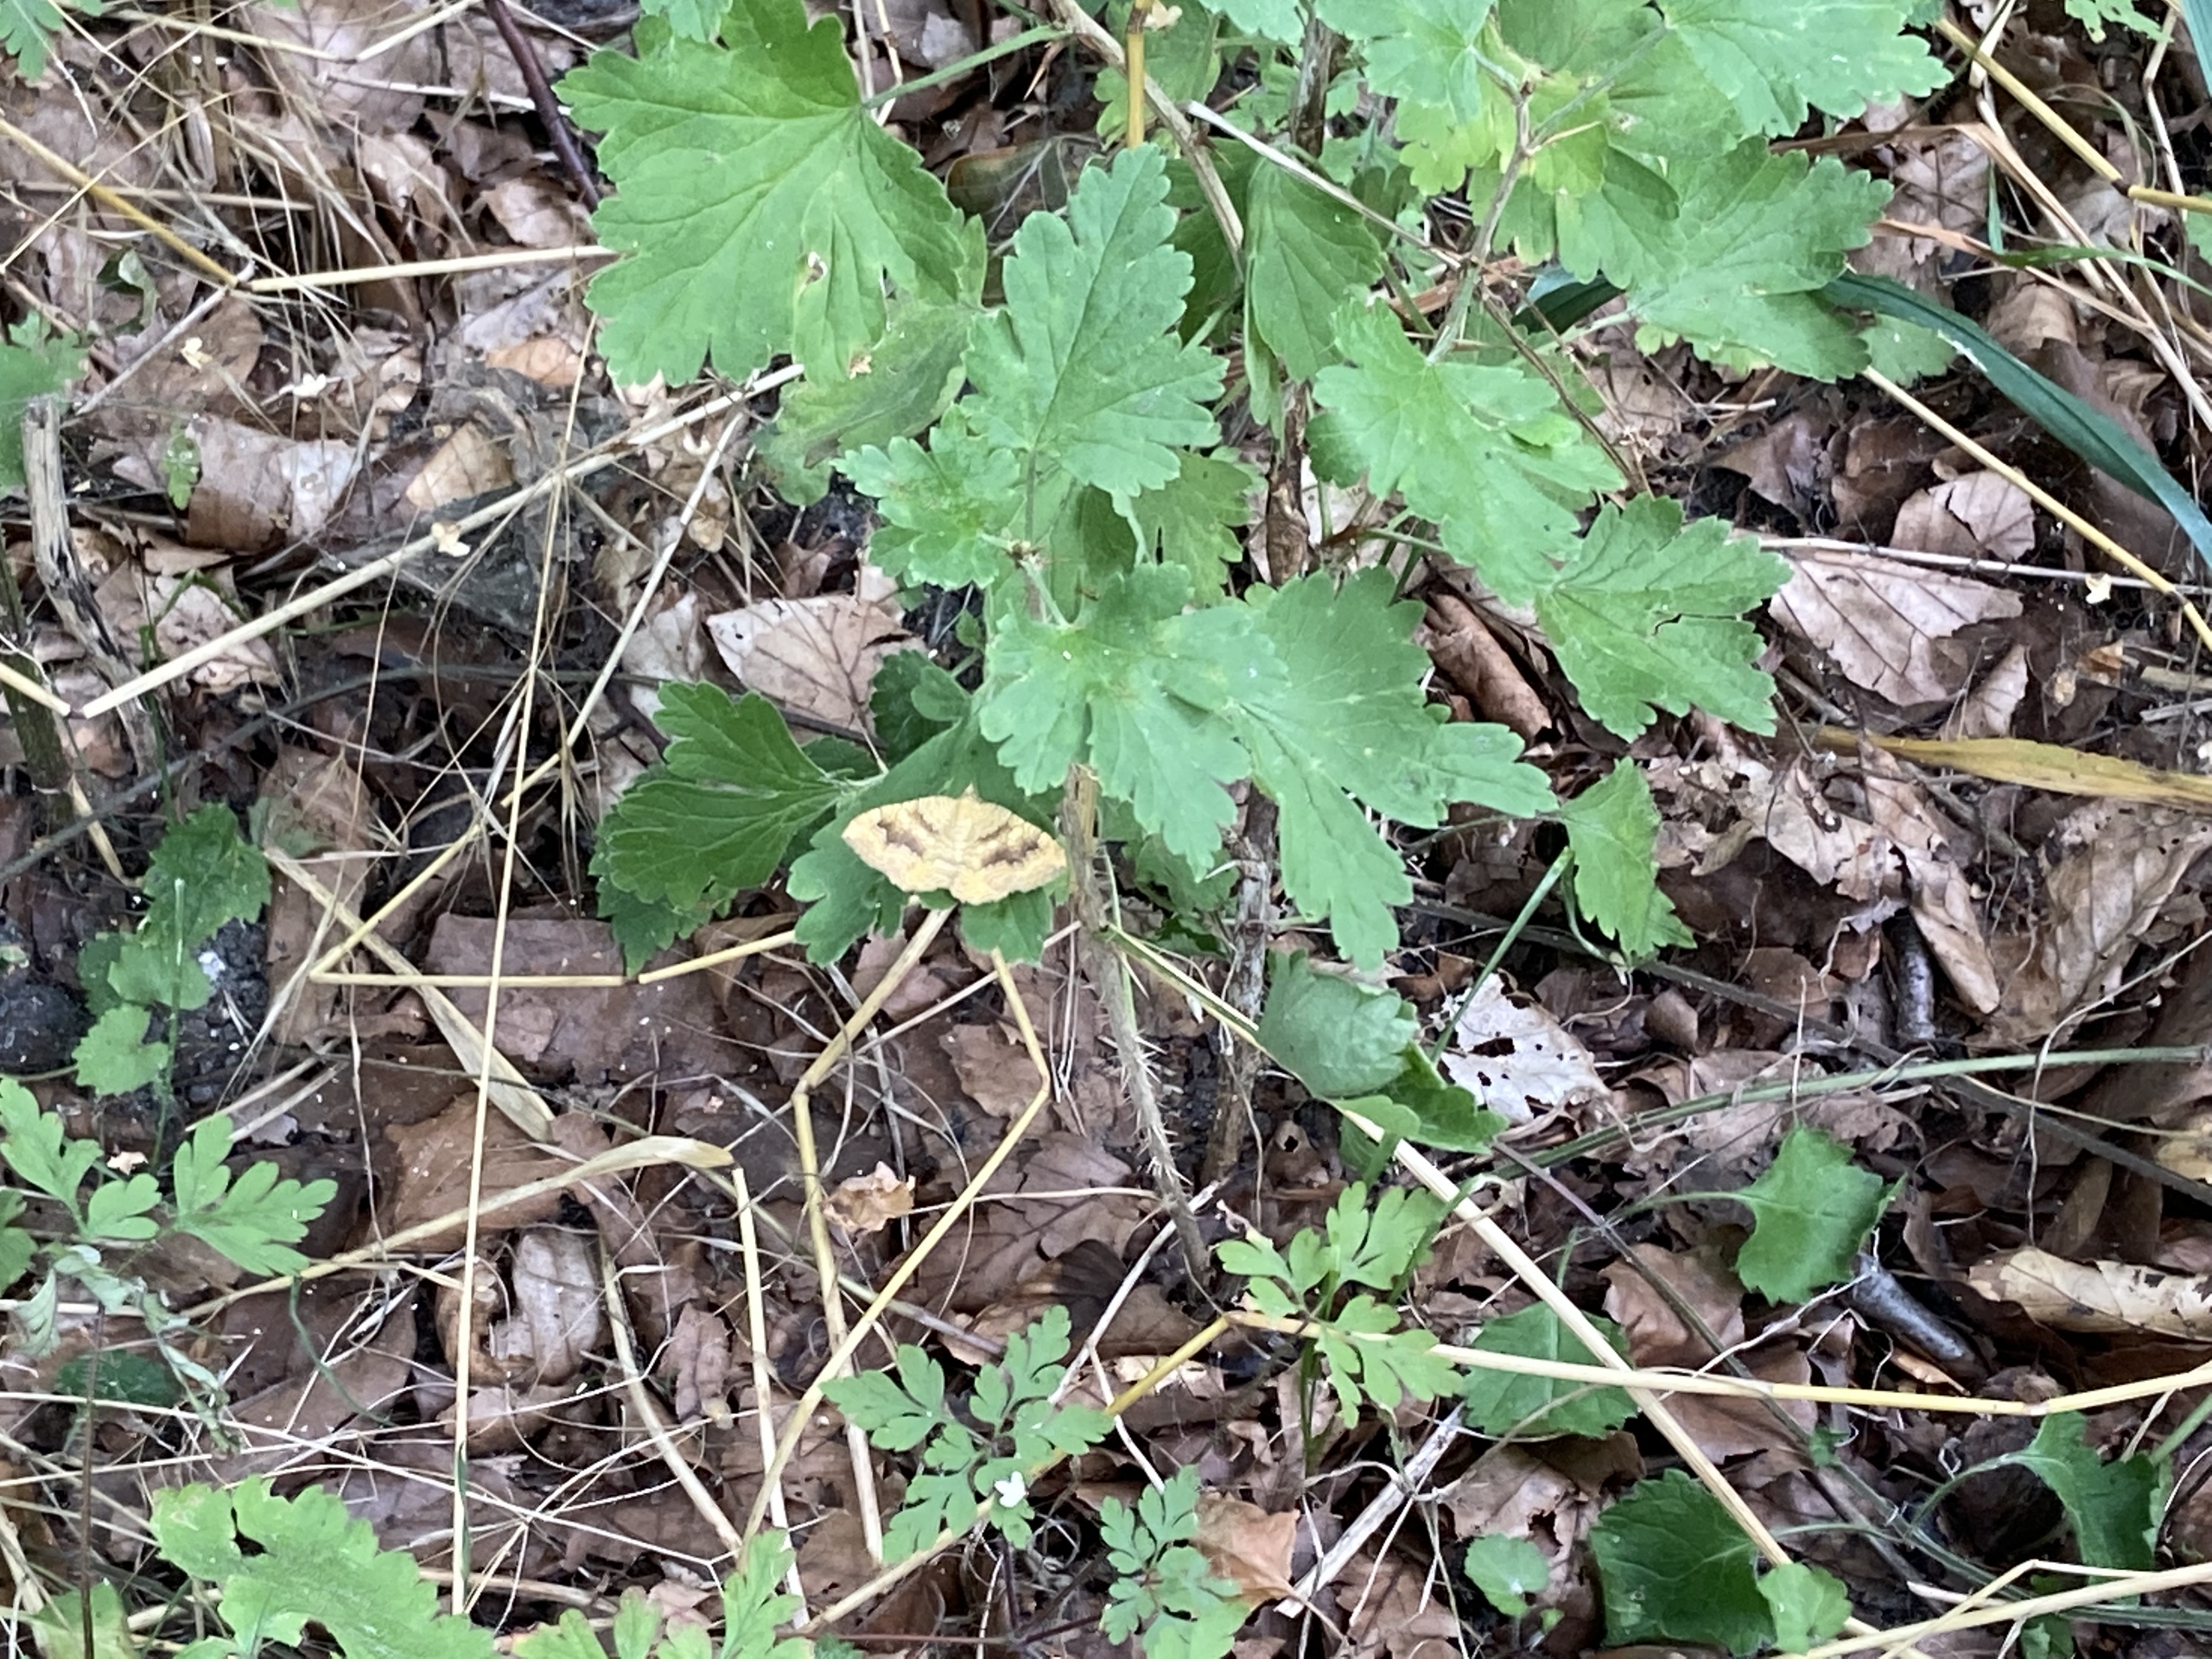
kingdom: Animalia
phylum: Arthropoda
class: Insecta
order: Lepidoptera
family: Geometridae
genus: Camptogramma
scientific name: Camptogramma bilineata
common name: Okkergul bladmåler
